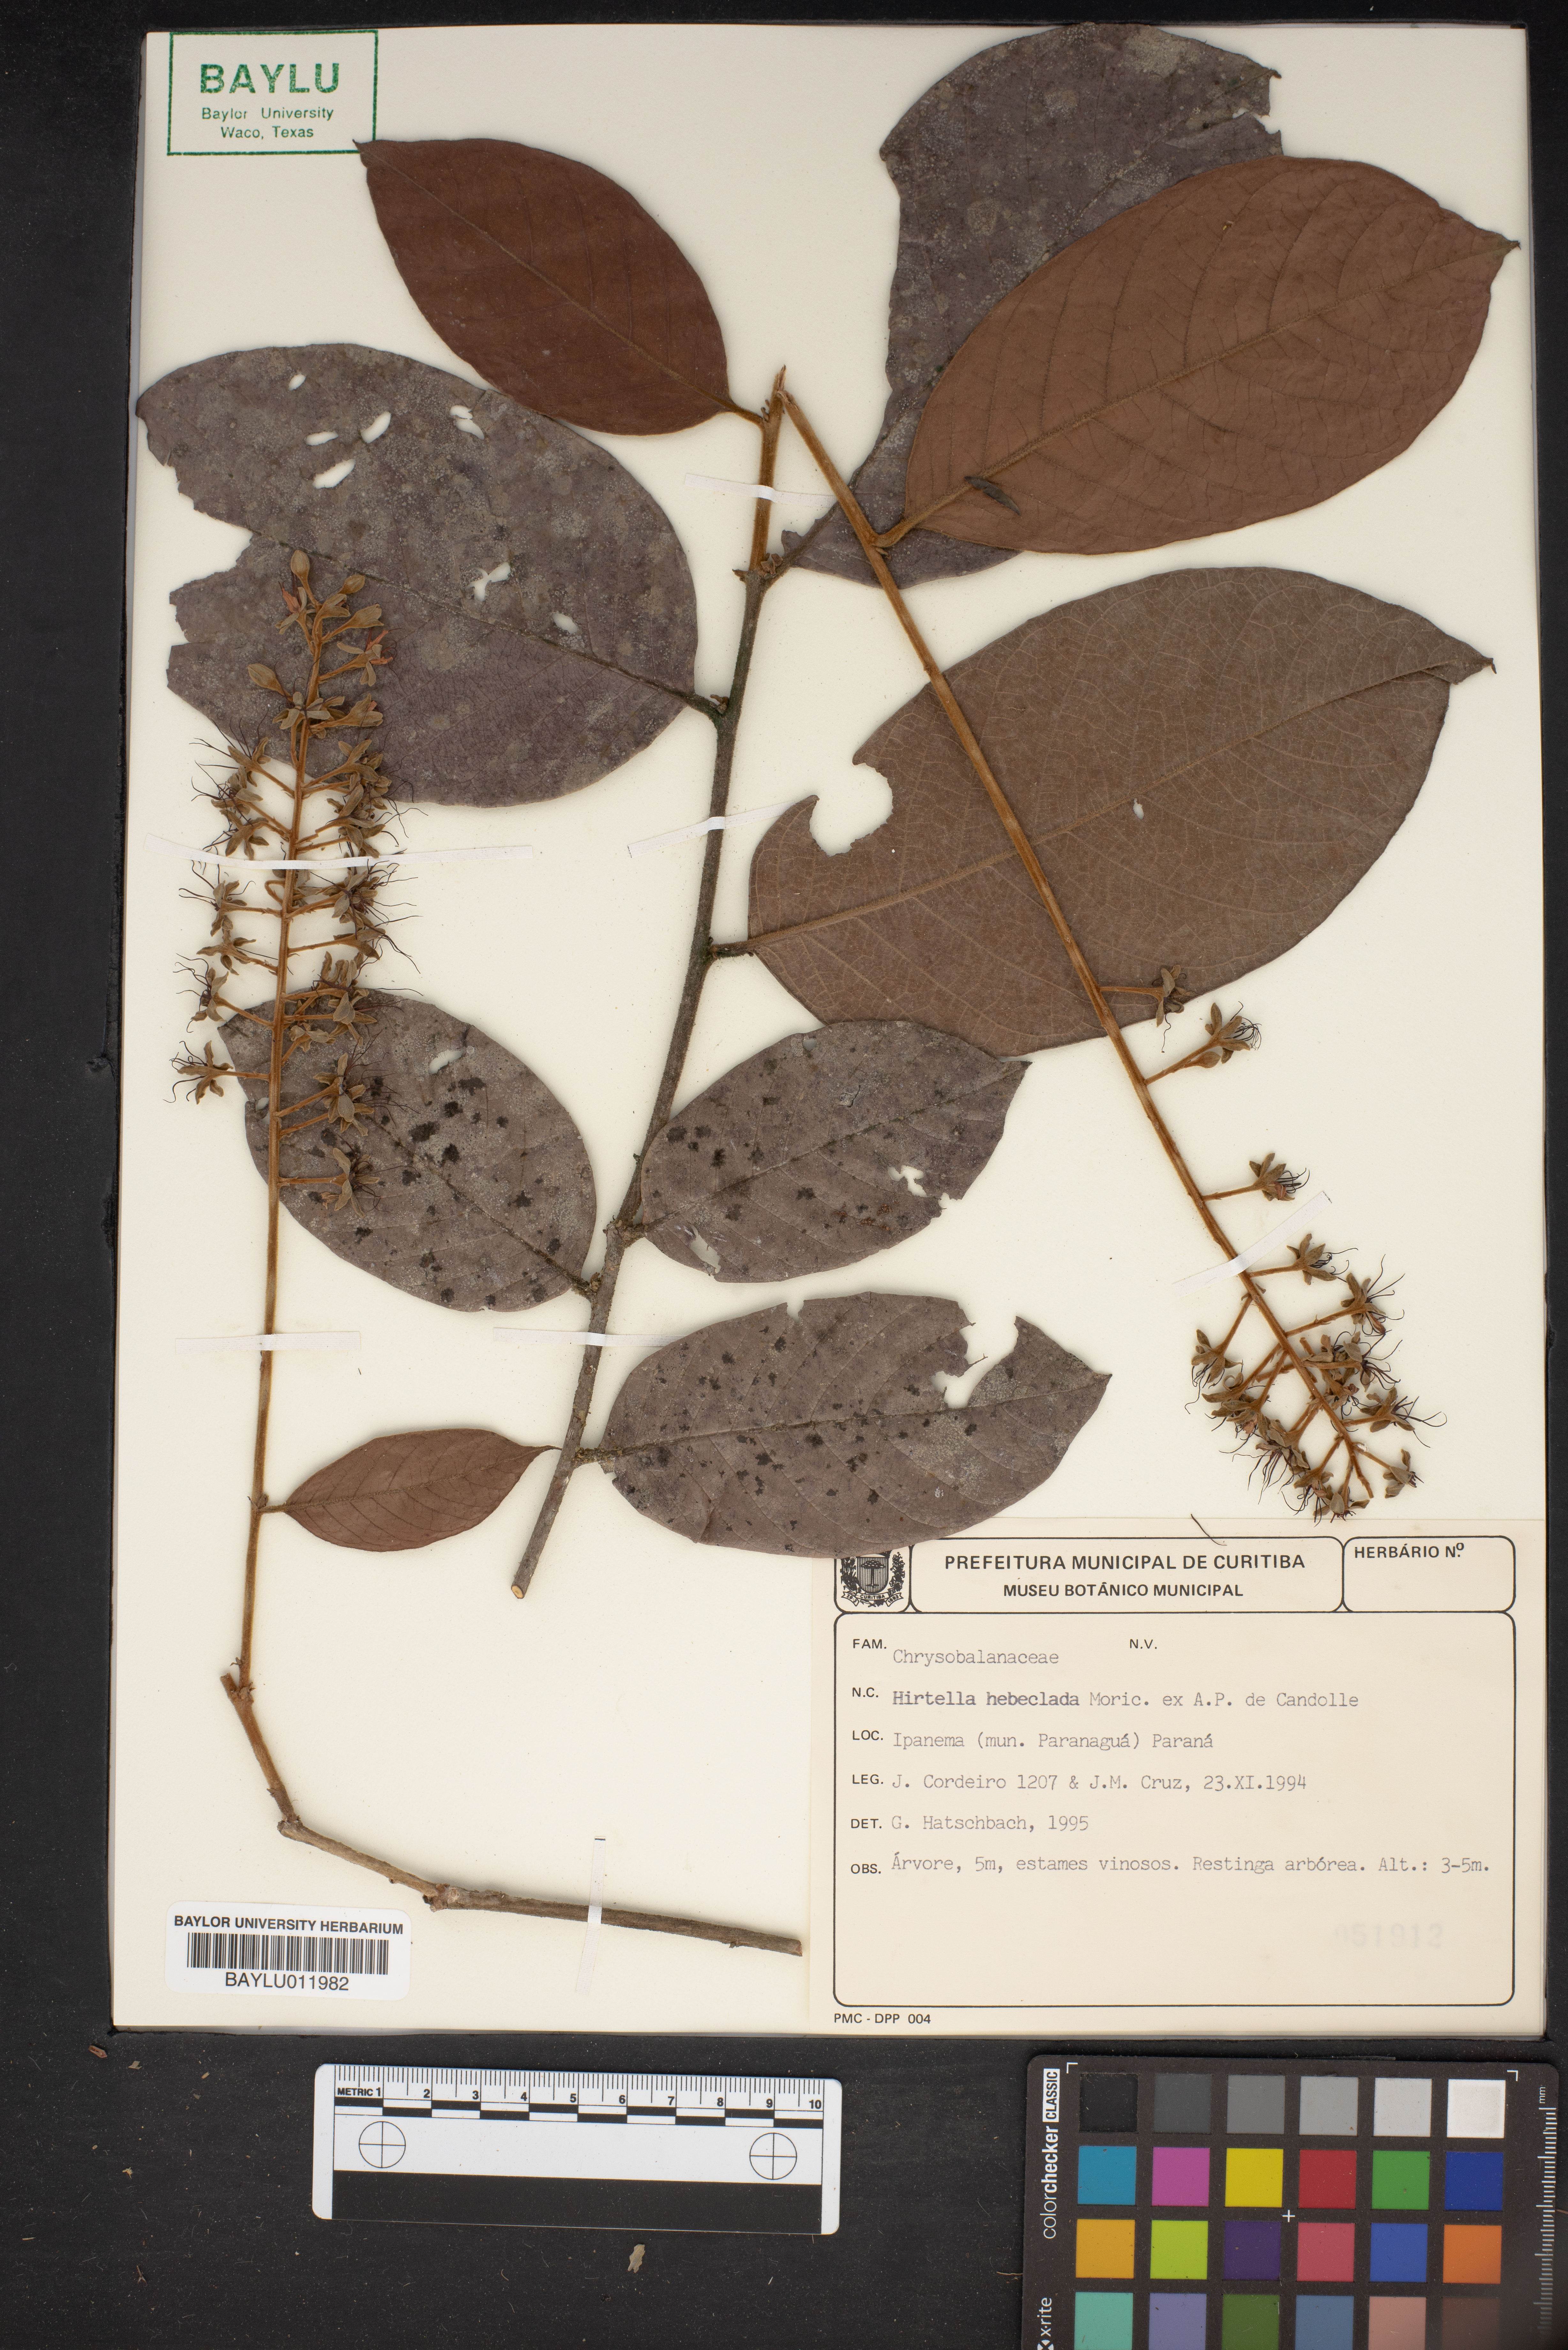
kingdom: Plantae
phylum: Tracheophyta
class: Magnoliopsida
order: Malpighiales
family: Chrysobalanaceae
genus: Hirtella
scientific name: Hirtella hebeclada
